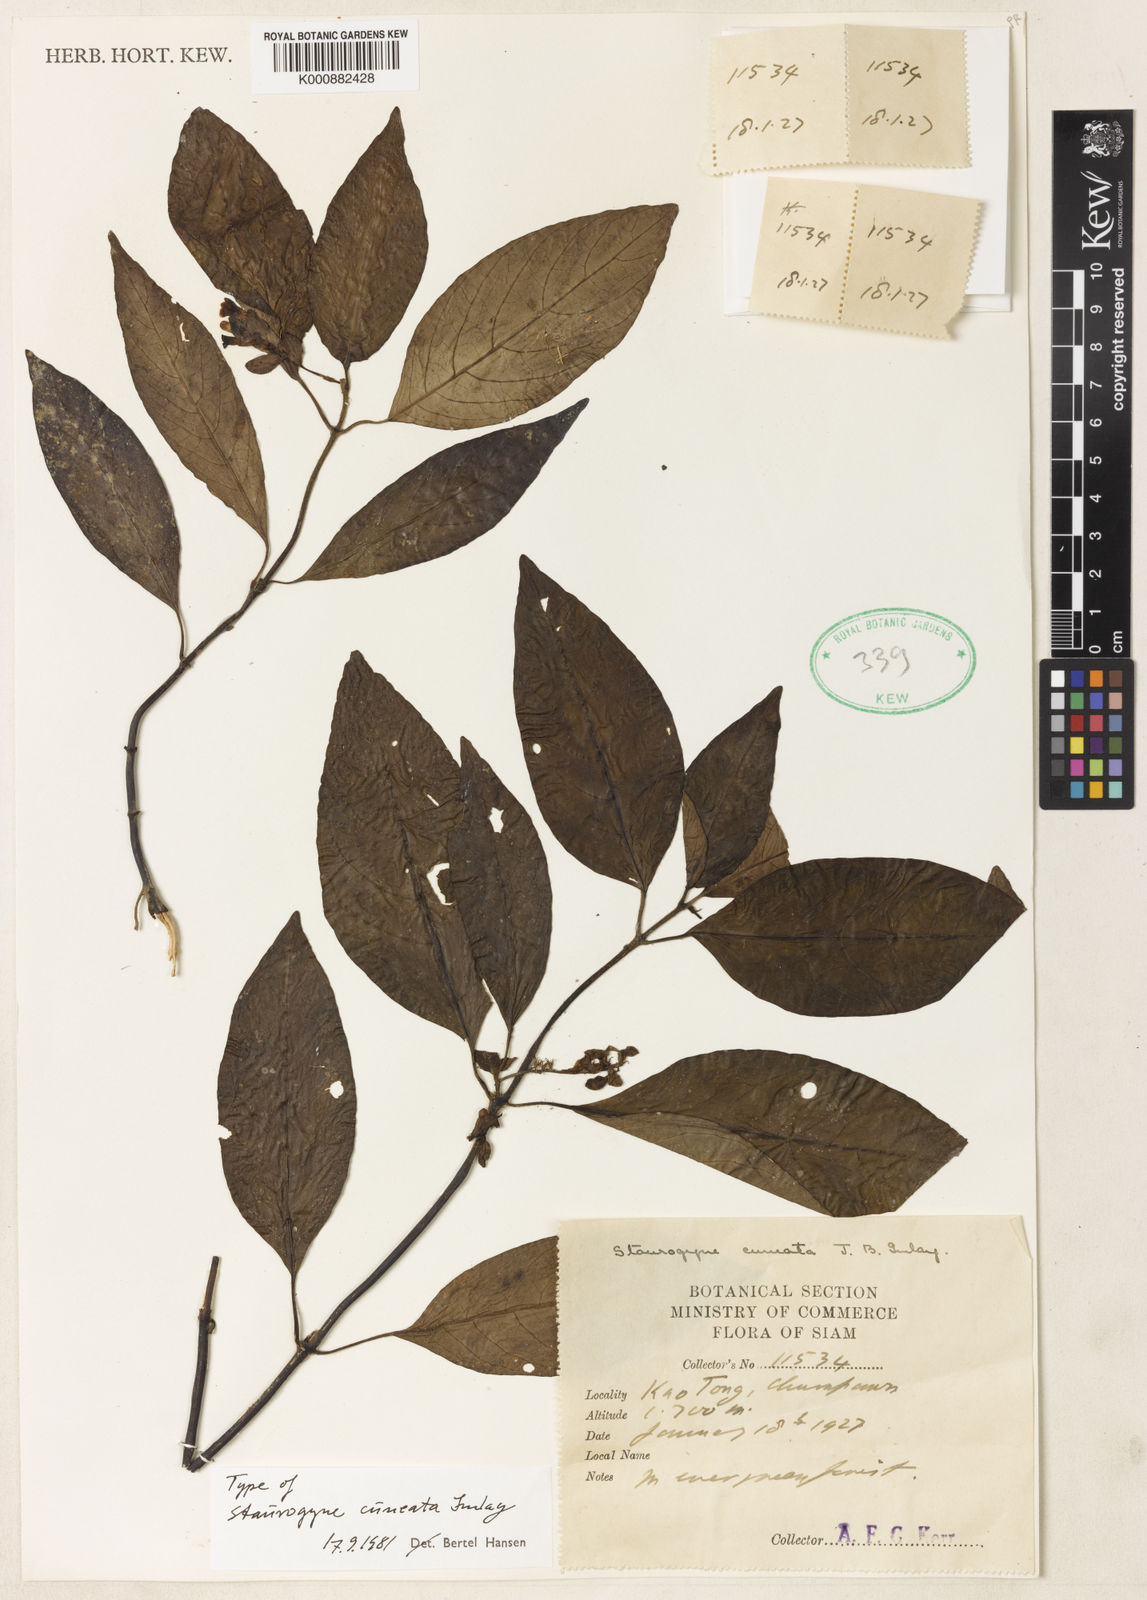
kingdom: Plantae
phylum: Tracheophyta
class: Magnoliopsida
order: Lamiales
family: Acanthaceae
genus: Staurogyne
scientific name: Staurogyne cuneata
